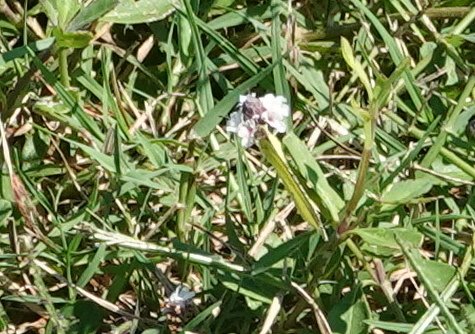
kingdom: Animalia
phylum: Arthropoda
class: Insecta
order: Lepidoptera
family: Pieridae
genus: Pyrisitia
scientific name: Pyrisitia lisa
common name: Little Yellow
